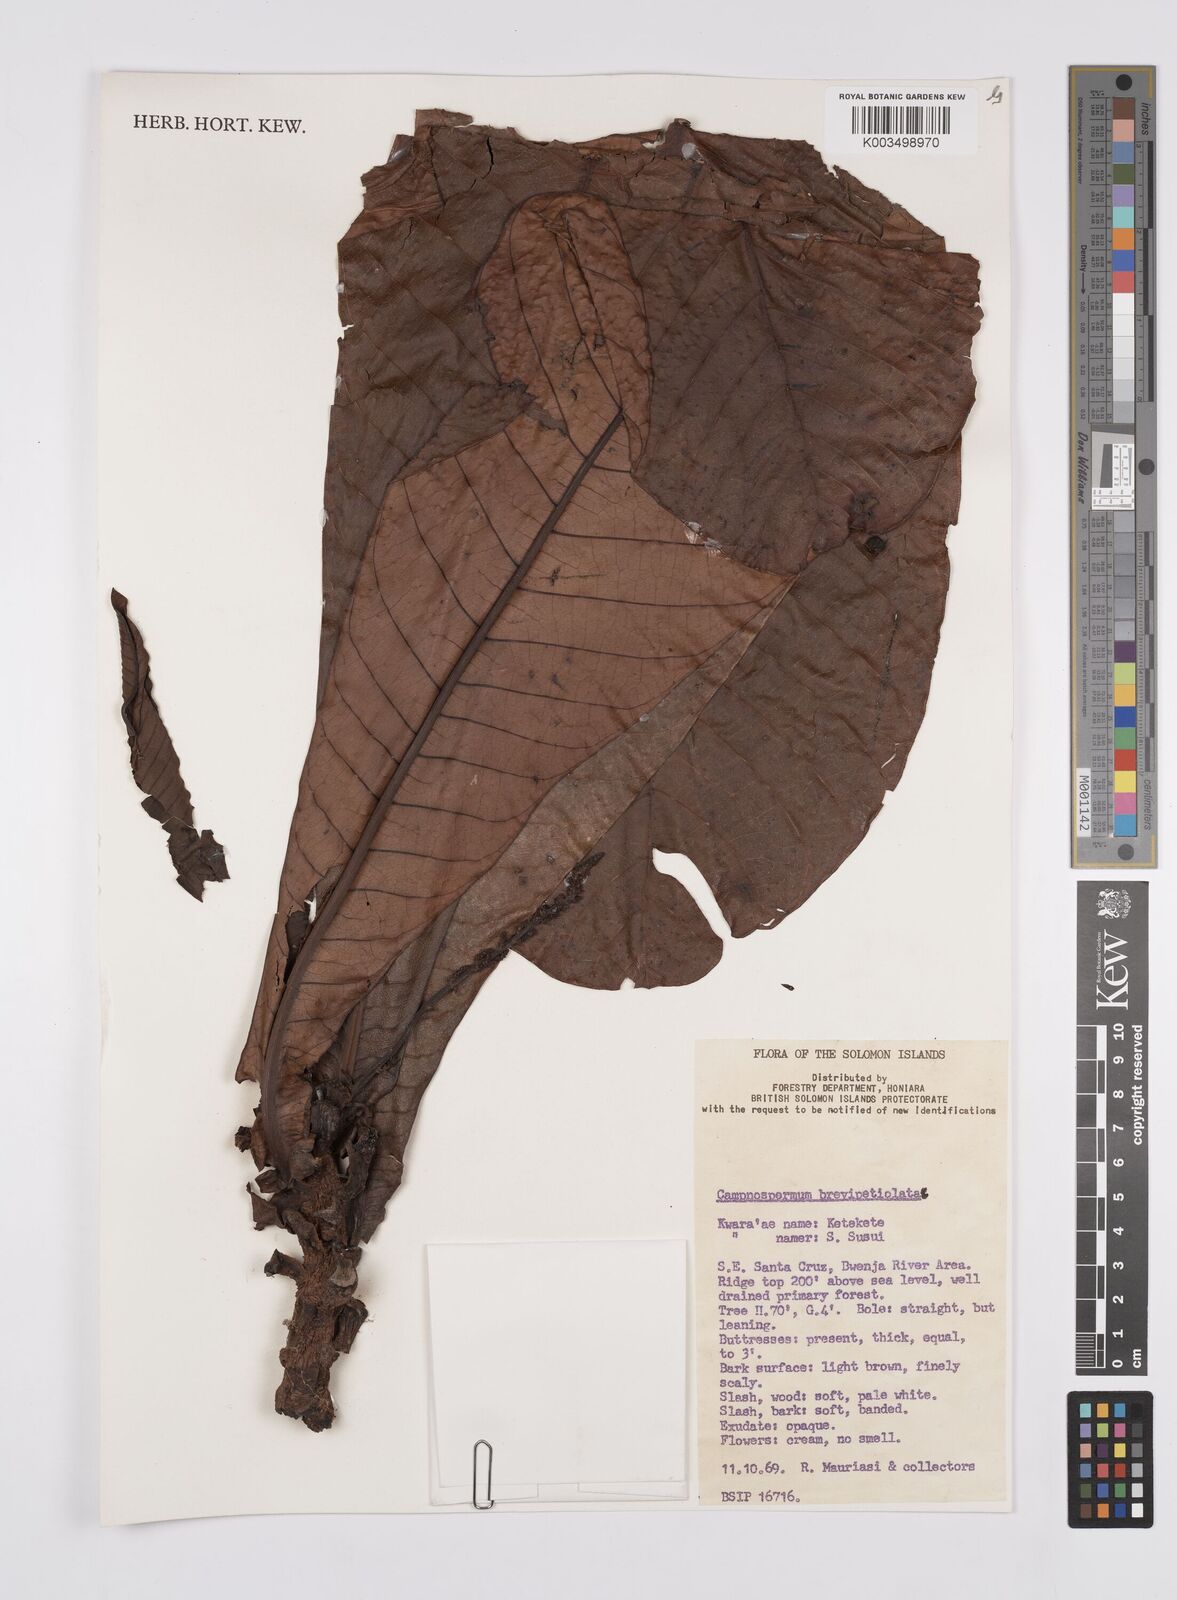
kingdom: Plantae
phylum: Tracheophyta
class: Magnoliopsida
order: Sapindales
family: Anacardiaceae
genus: Campnosperma
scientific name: Campnosperma brevipetiolatum
